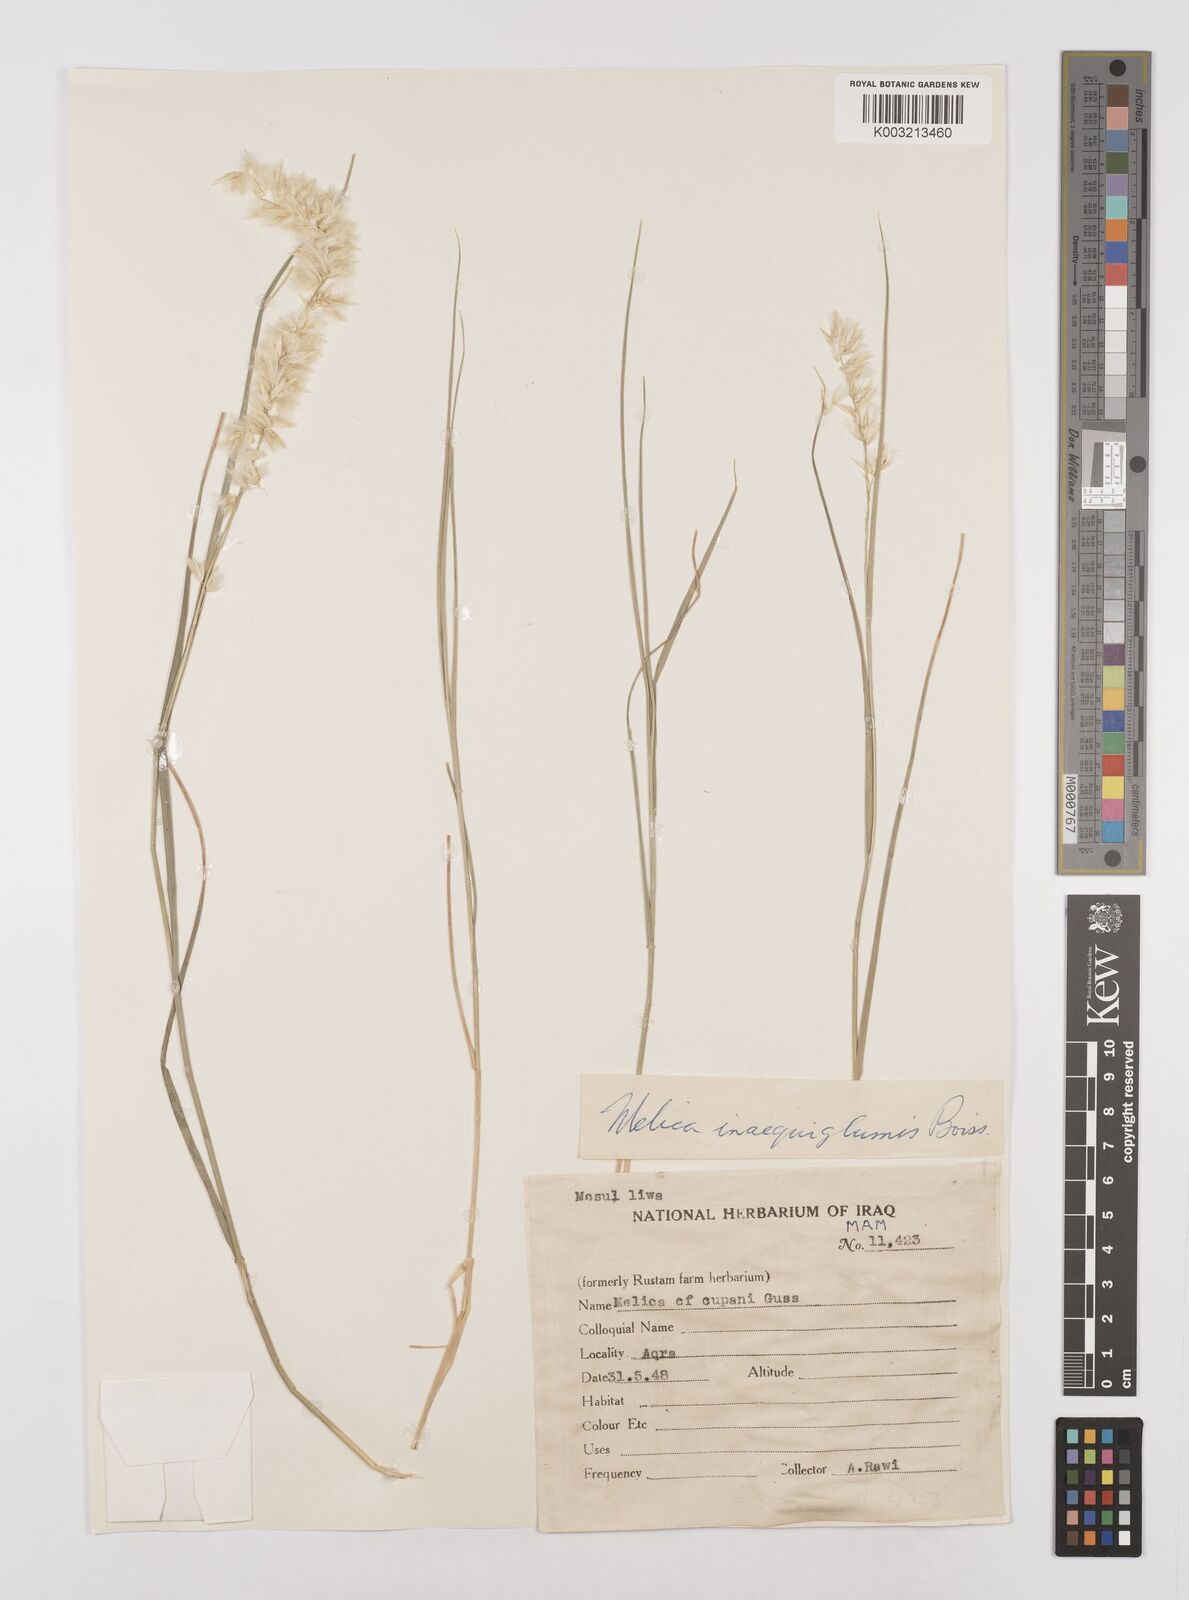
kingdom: Plantae
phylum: Tracheophyta
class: Liliopsida
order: Poales
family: Poaceae
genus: Melica
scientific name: Melica persica
